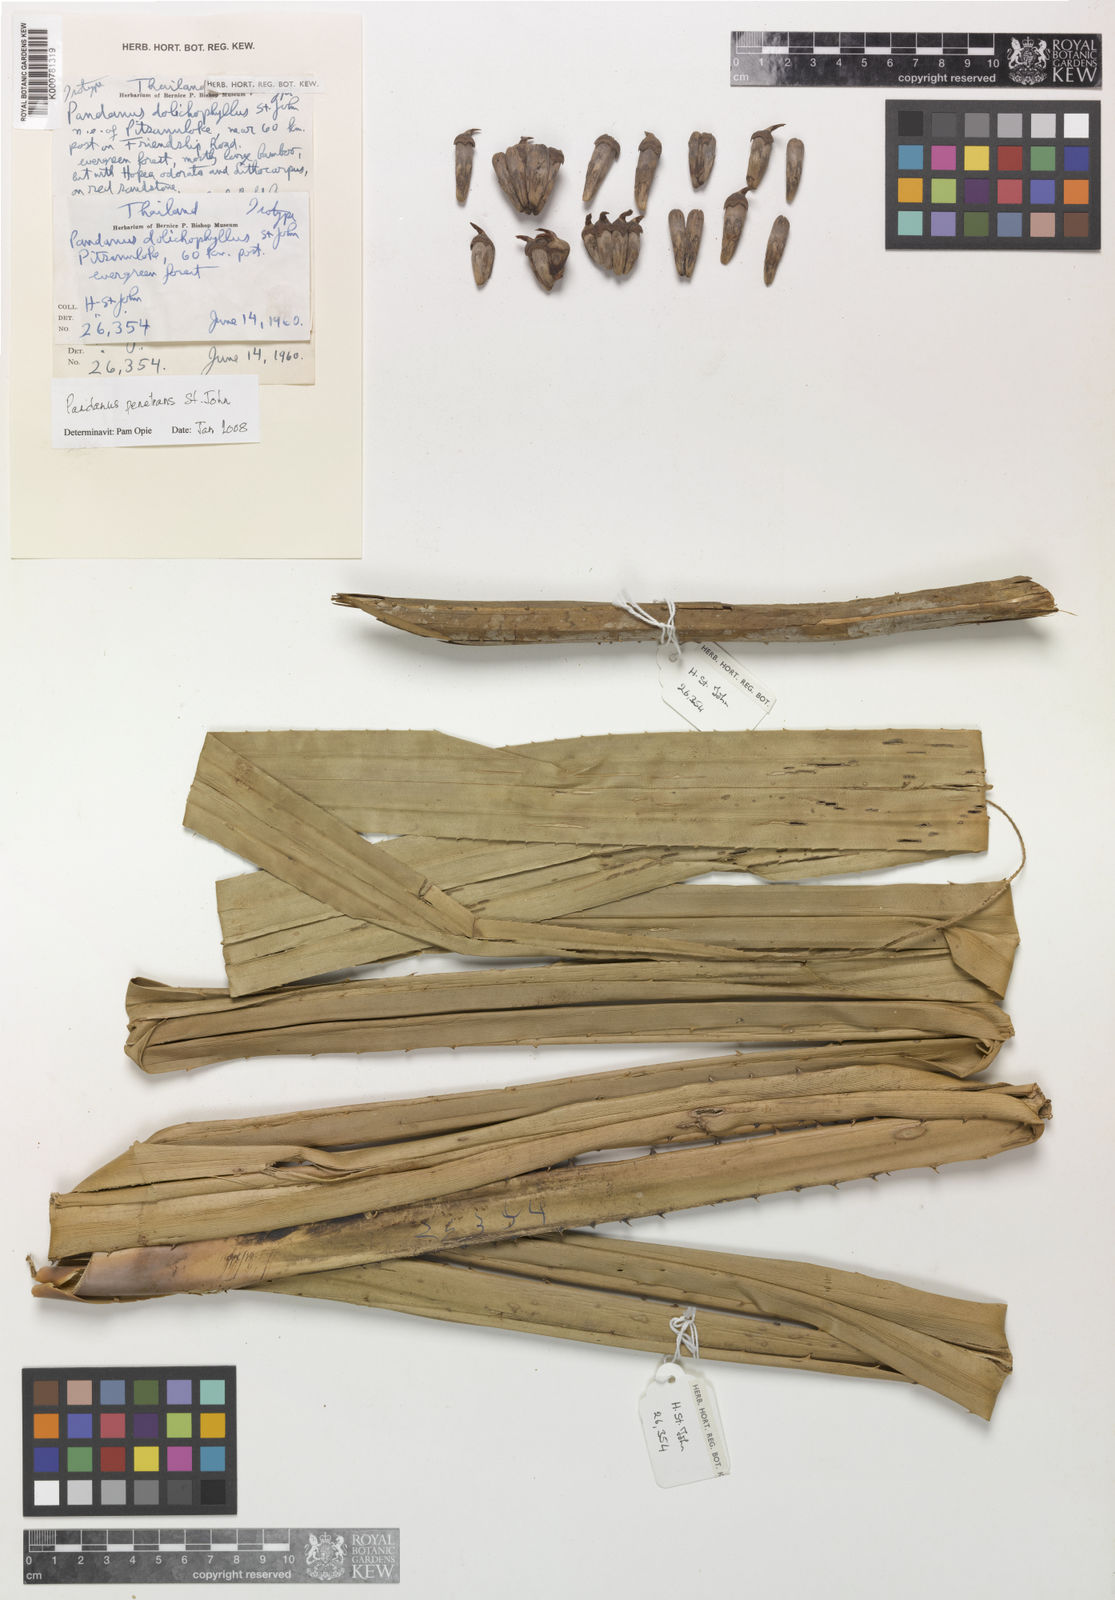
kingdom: Plantae
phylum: Tracheophyta
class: Liliopsida
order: Pandanales
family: Pandanaceae
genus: Pandanus
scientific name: Pandanus penetrans
